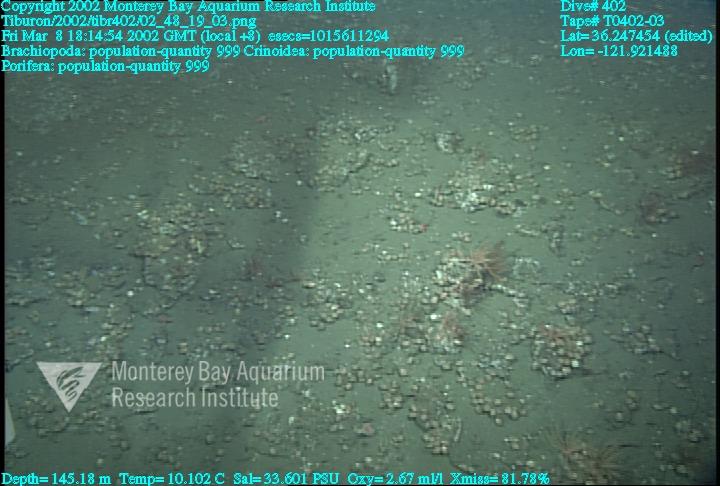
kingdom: Animalia
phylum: Porifera
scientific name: Porifera
